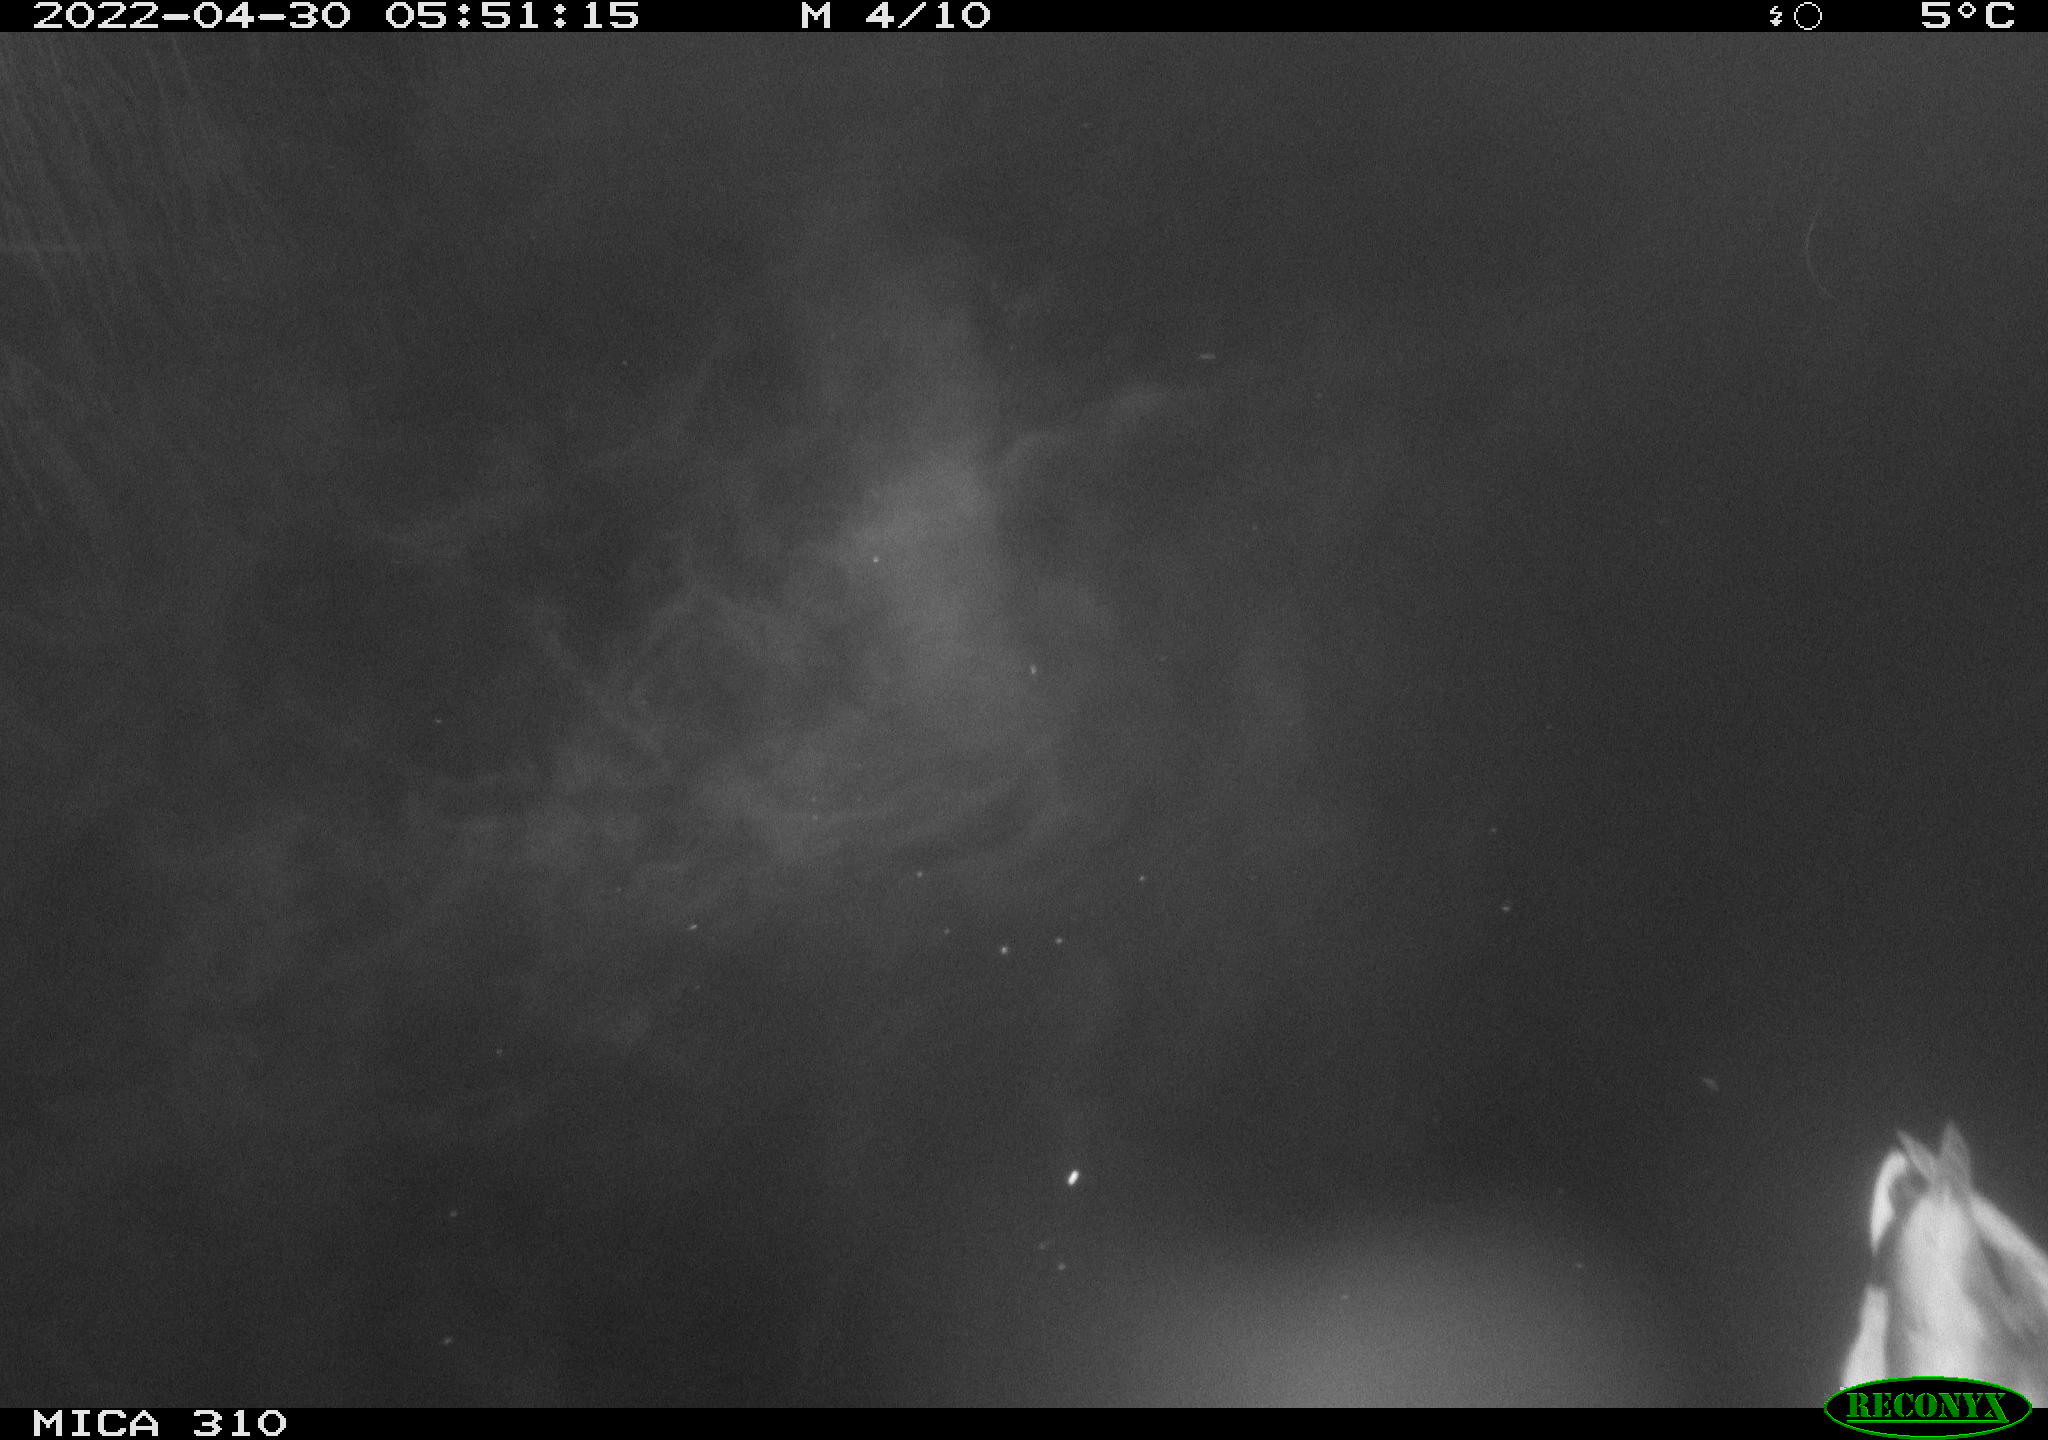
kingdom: Animalia
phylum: Chordata
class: Aves
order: Anseriformes
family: Anatidae
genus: Anas
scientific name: Anas platyrhynchos
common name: Mallard
